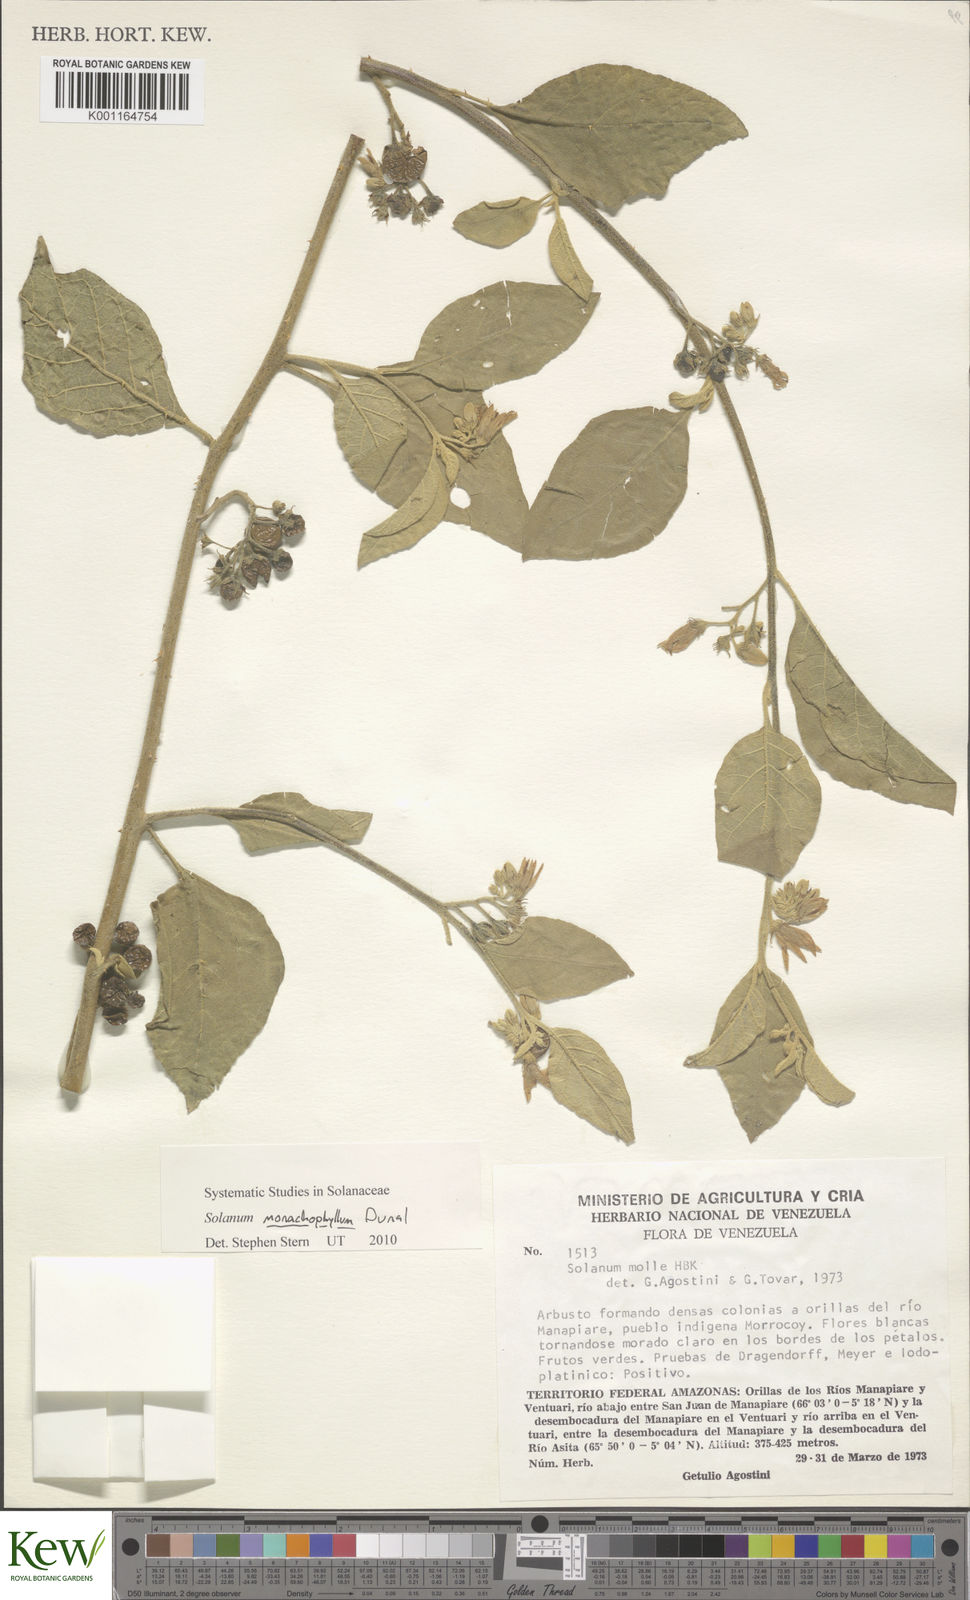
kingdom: Plantae
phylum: Tracheophyta
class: Magnoliopsida
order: Solanales
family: Solanaceae
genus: Solanum
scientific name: Solanum monachophyllum
